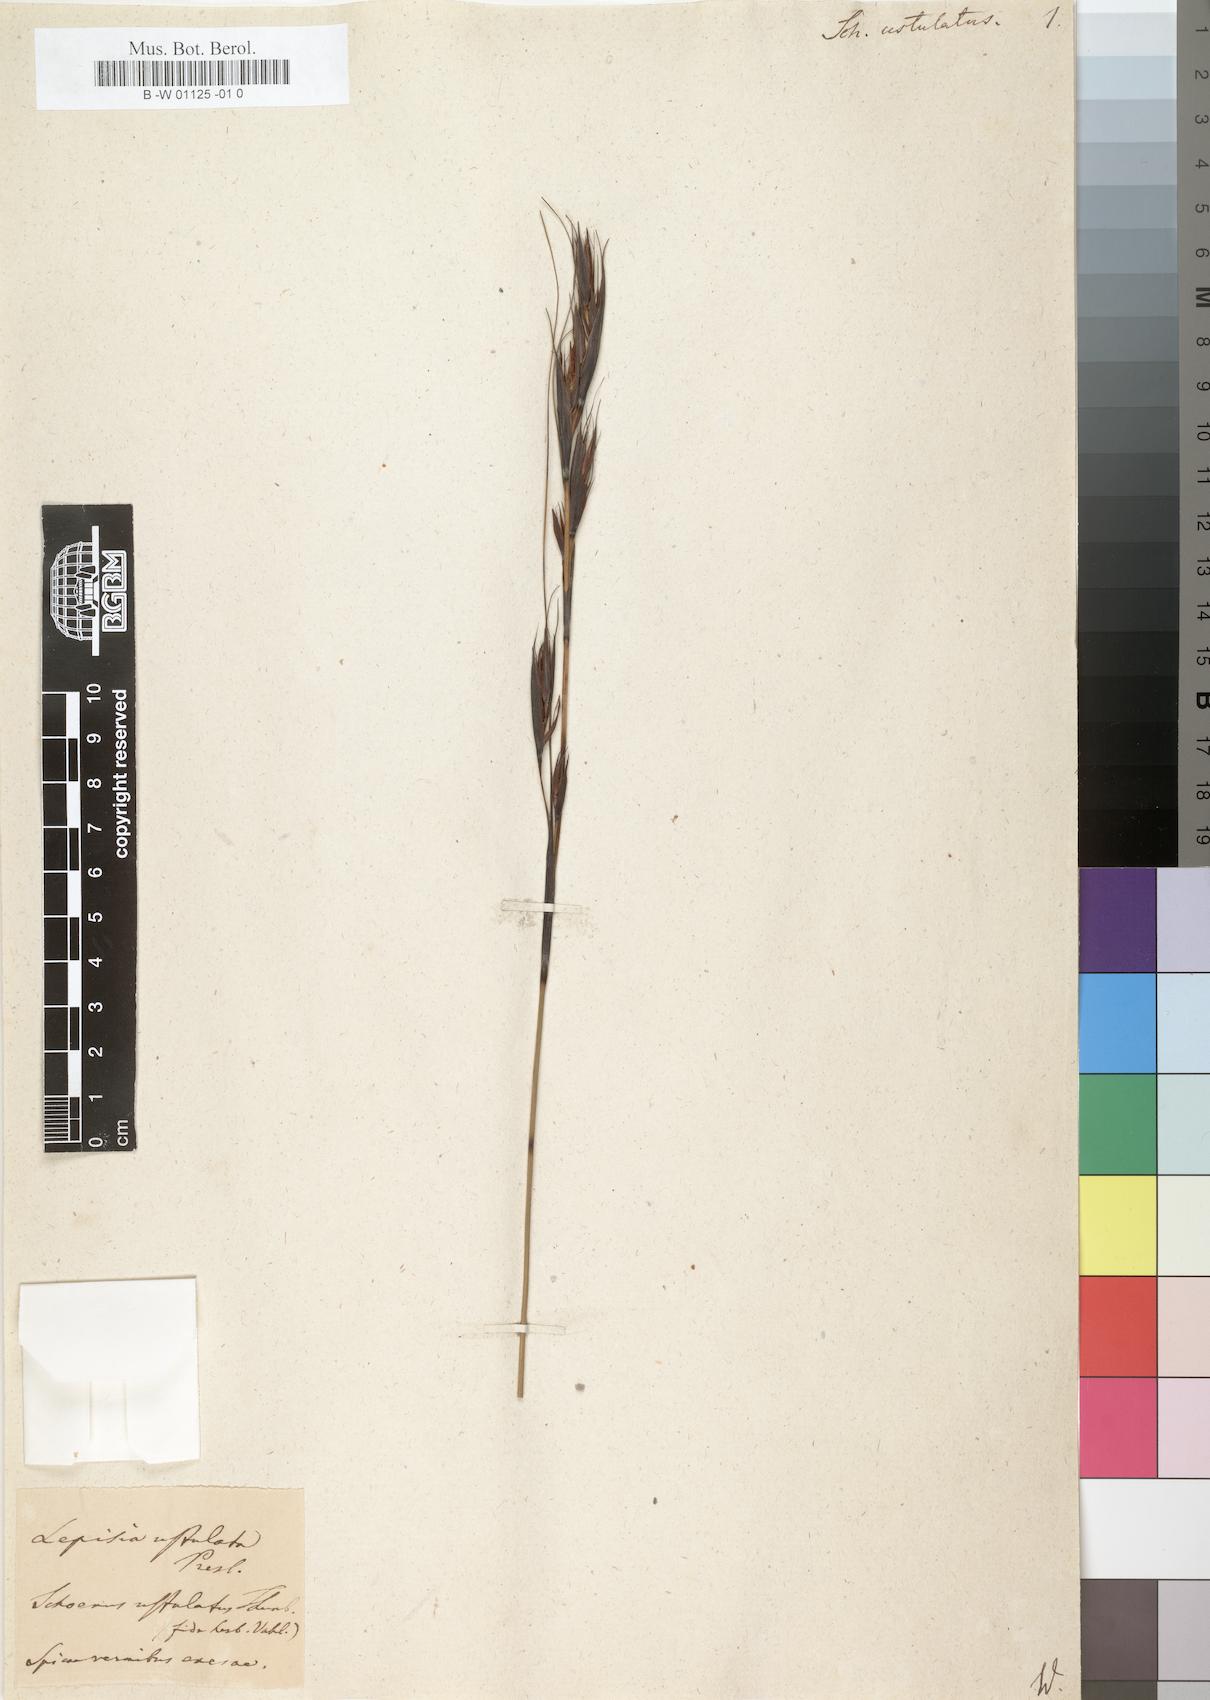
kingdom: Plantae
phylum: Tracheophyta
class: Liliopsida
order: Poales
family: Cyperaceae
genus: Schoenus
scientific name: Schoenus ustulatus
